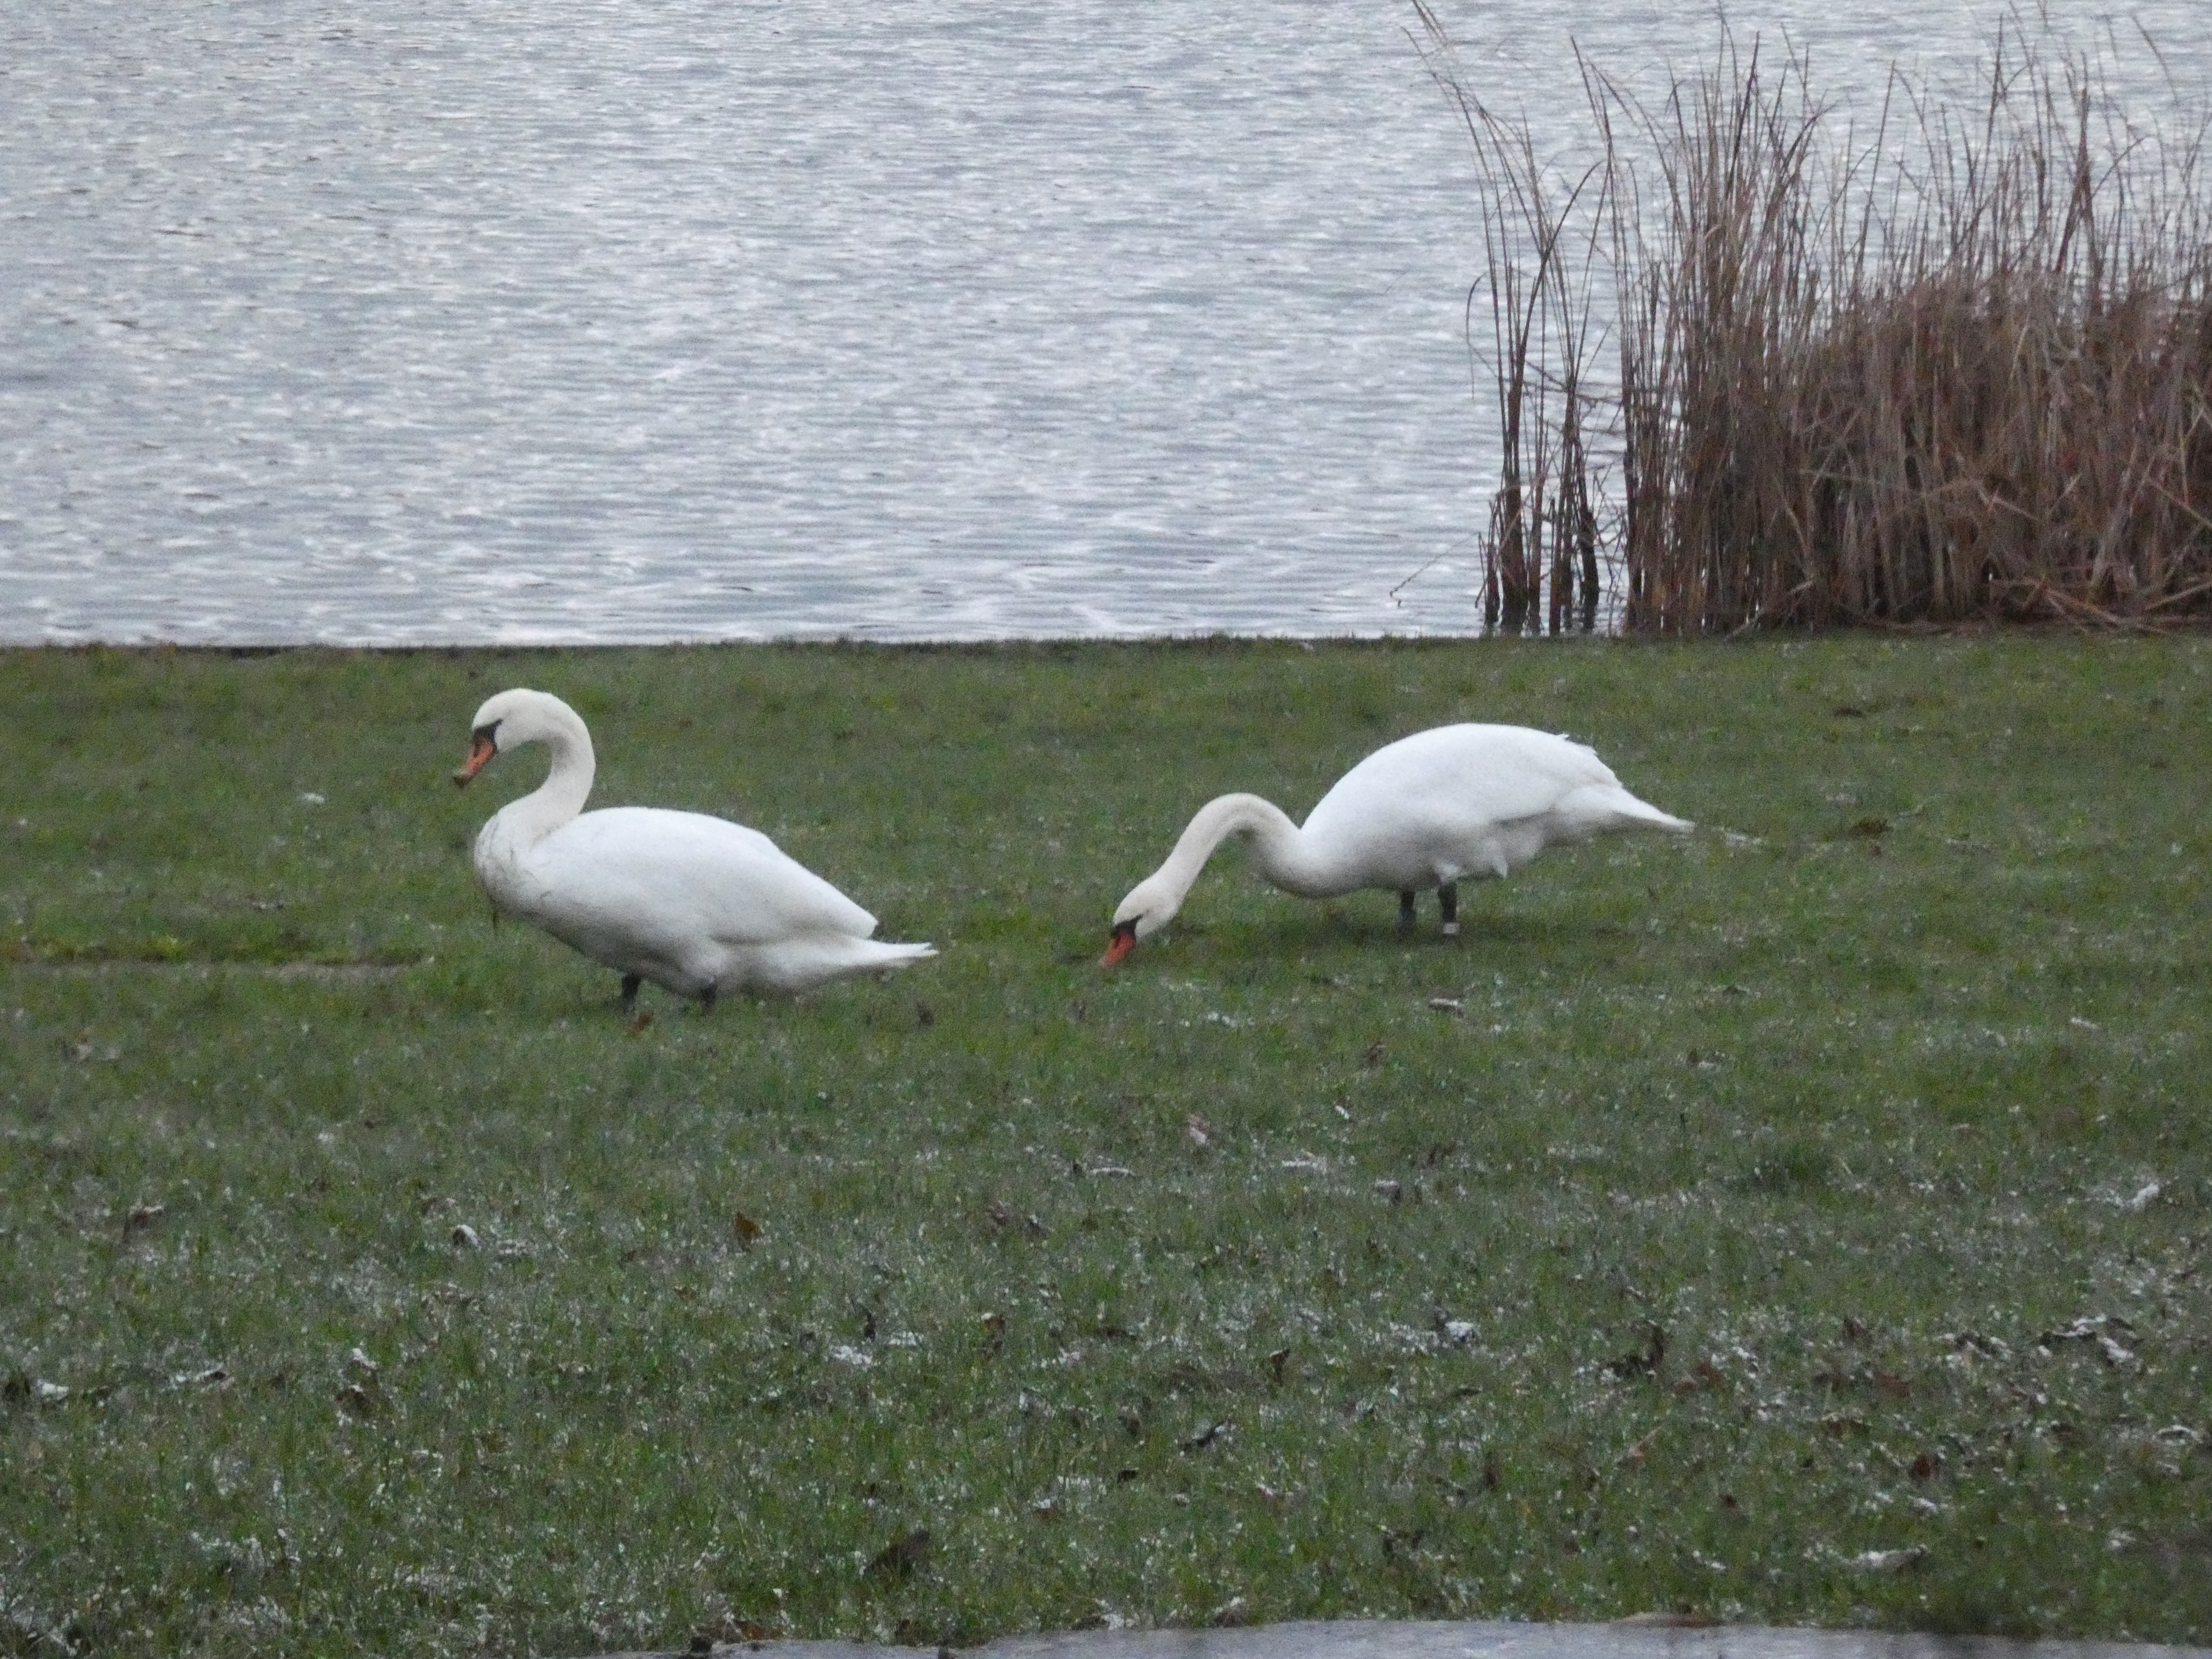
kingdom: Animalia
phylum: Chordata
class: Aves
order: Anseriformes
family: Anatidae
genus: Cygnus
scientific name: Cygnus olor
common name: Knopsvane
